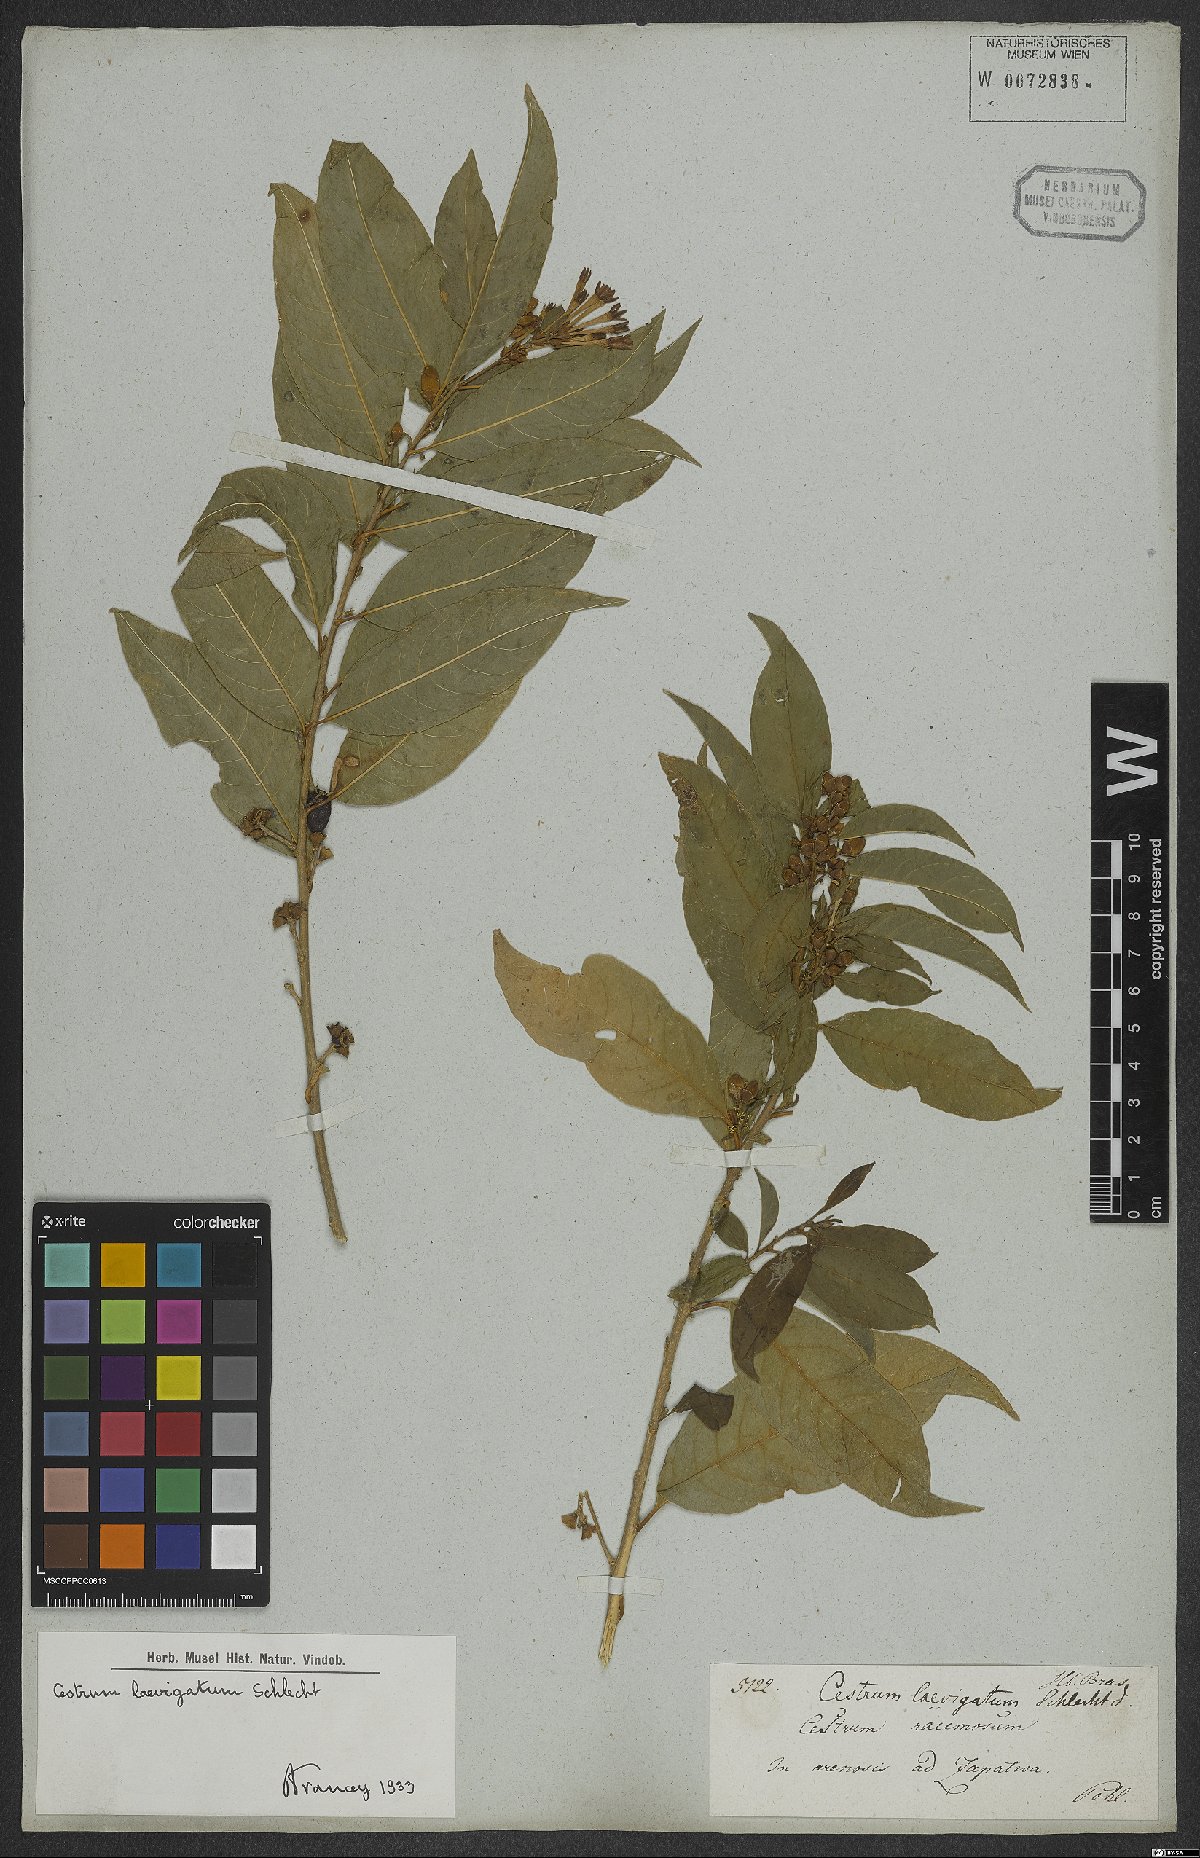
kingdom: Plantae
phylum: Tracheophyta
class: Magnoliopsida
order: Solanales
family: Solanaceae
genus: Cestrum
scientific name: Cestrum laevigatum
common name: Inkberry
